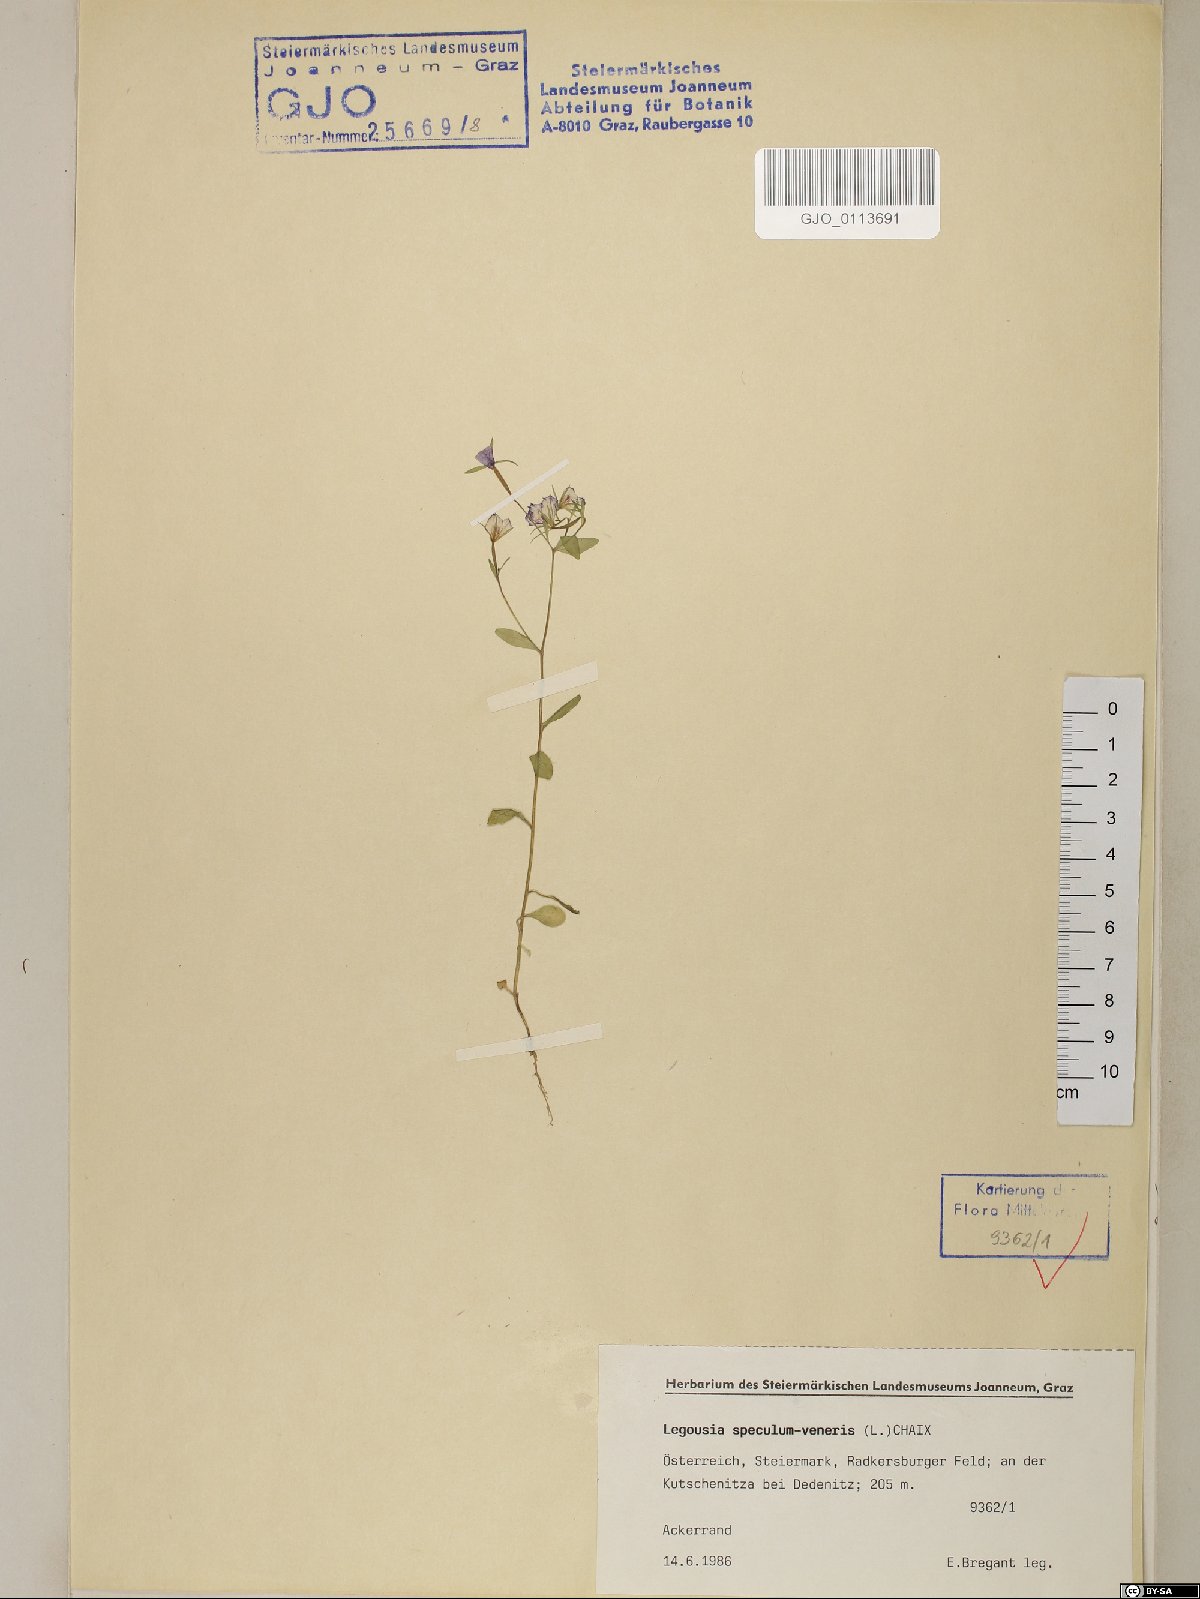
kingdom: Plantae
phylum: Tracheophyta
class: Magnoliopsida
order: Asterales
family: Campanulaceae
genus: Legousia
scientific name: Legousia speculum-veneris
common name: Large venus's-looking-glass
